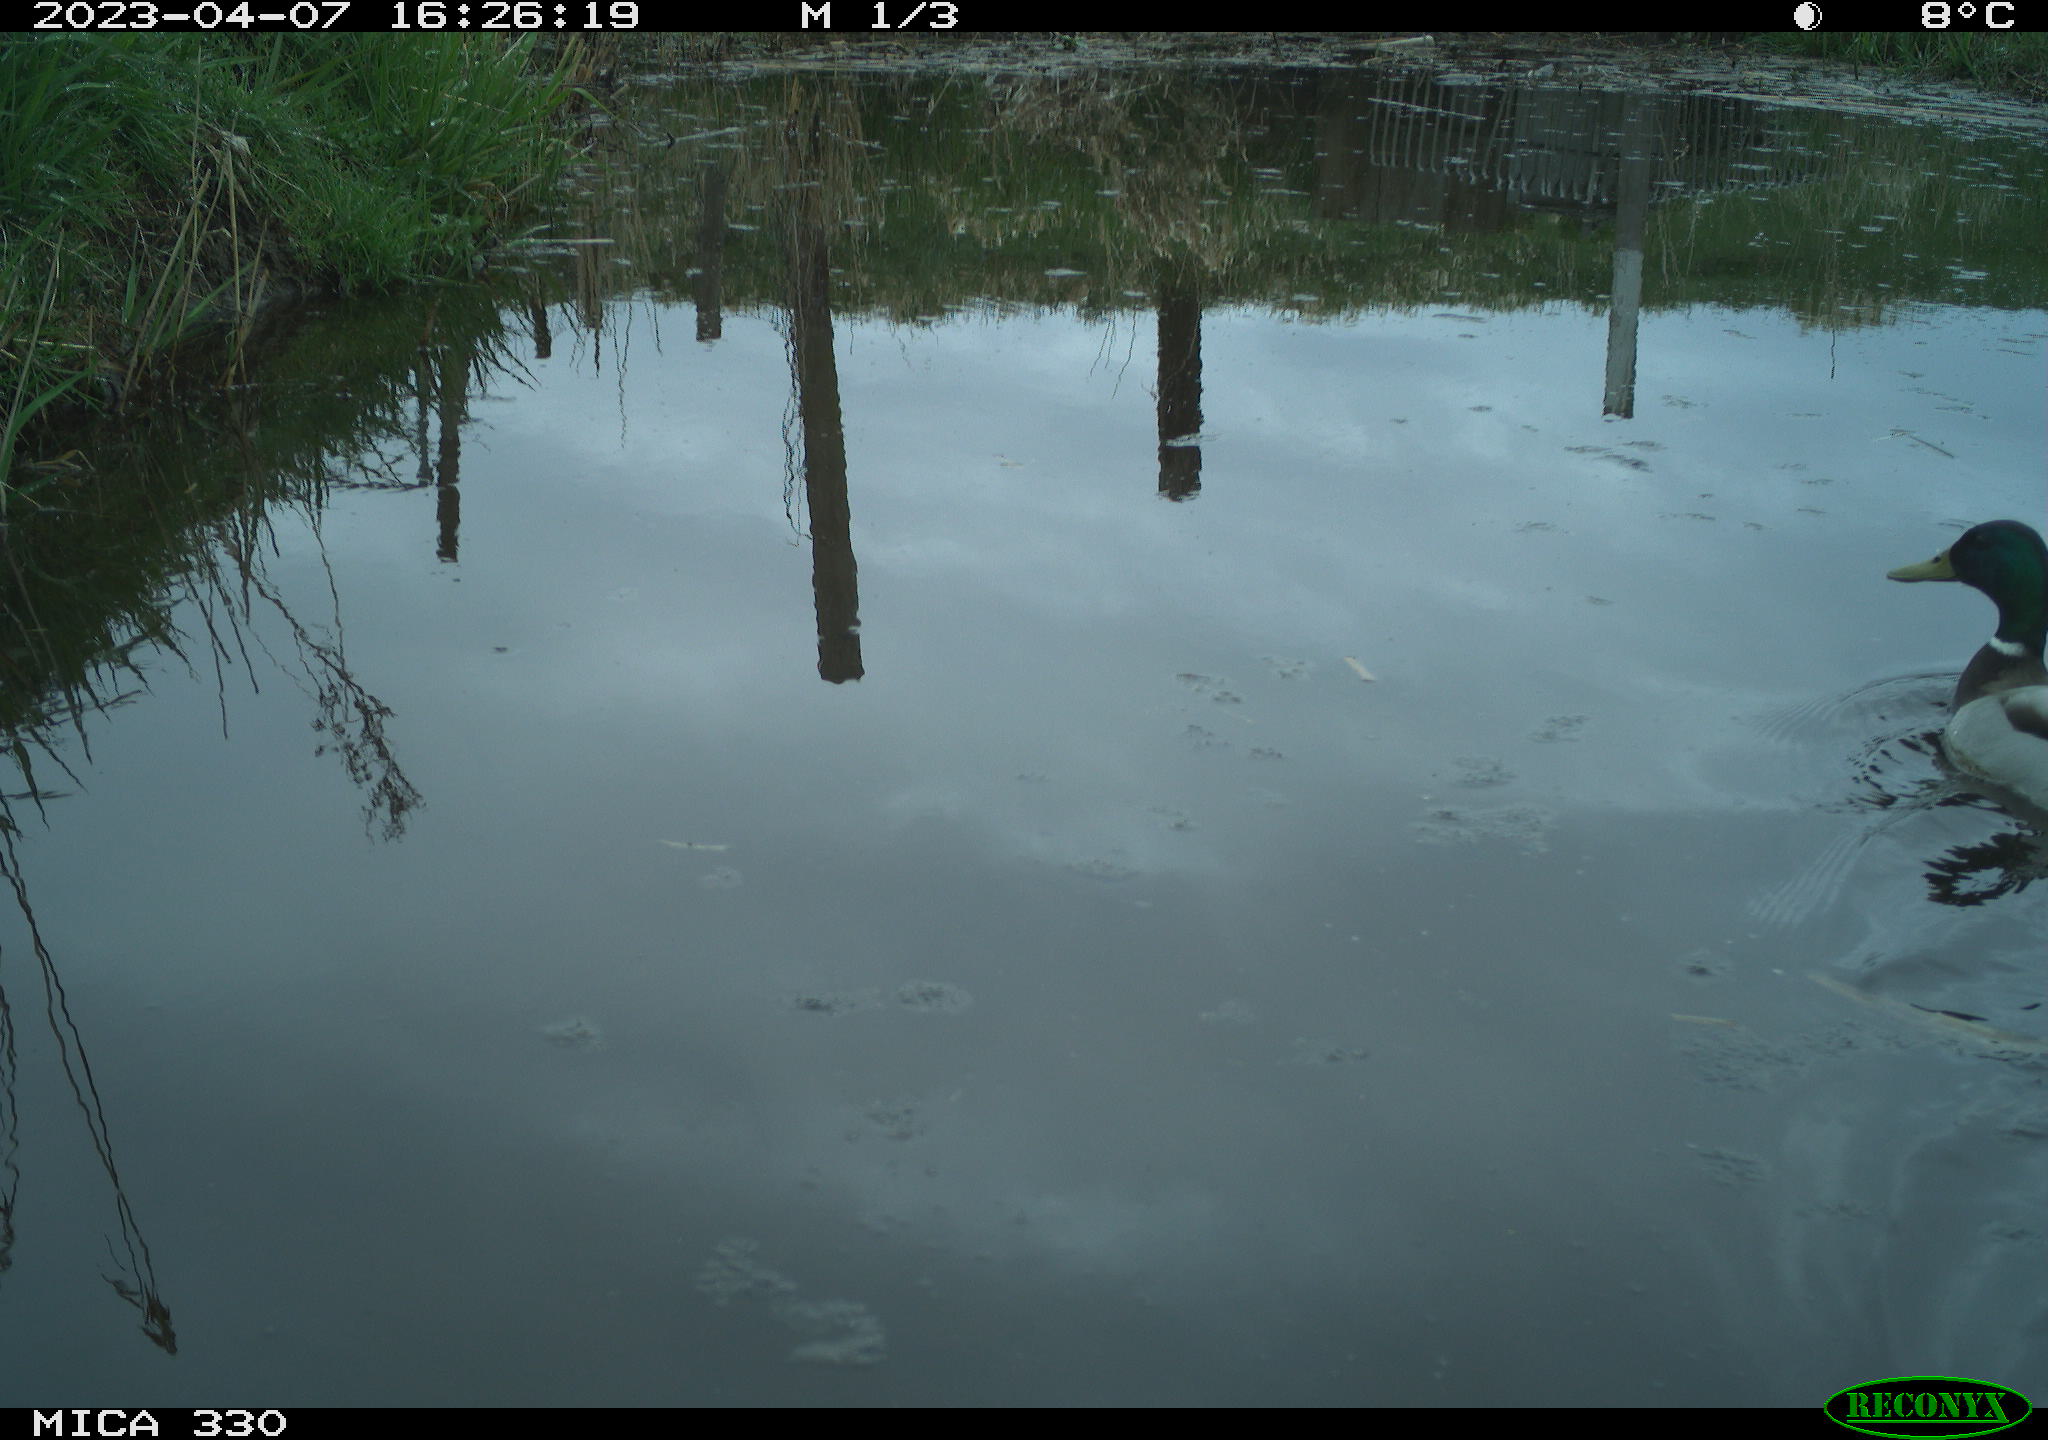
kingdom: Animalia
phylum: Chordata
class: Aves
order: Anseriformes
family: Anatidae
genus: Anas
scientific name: Anas
